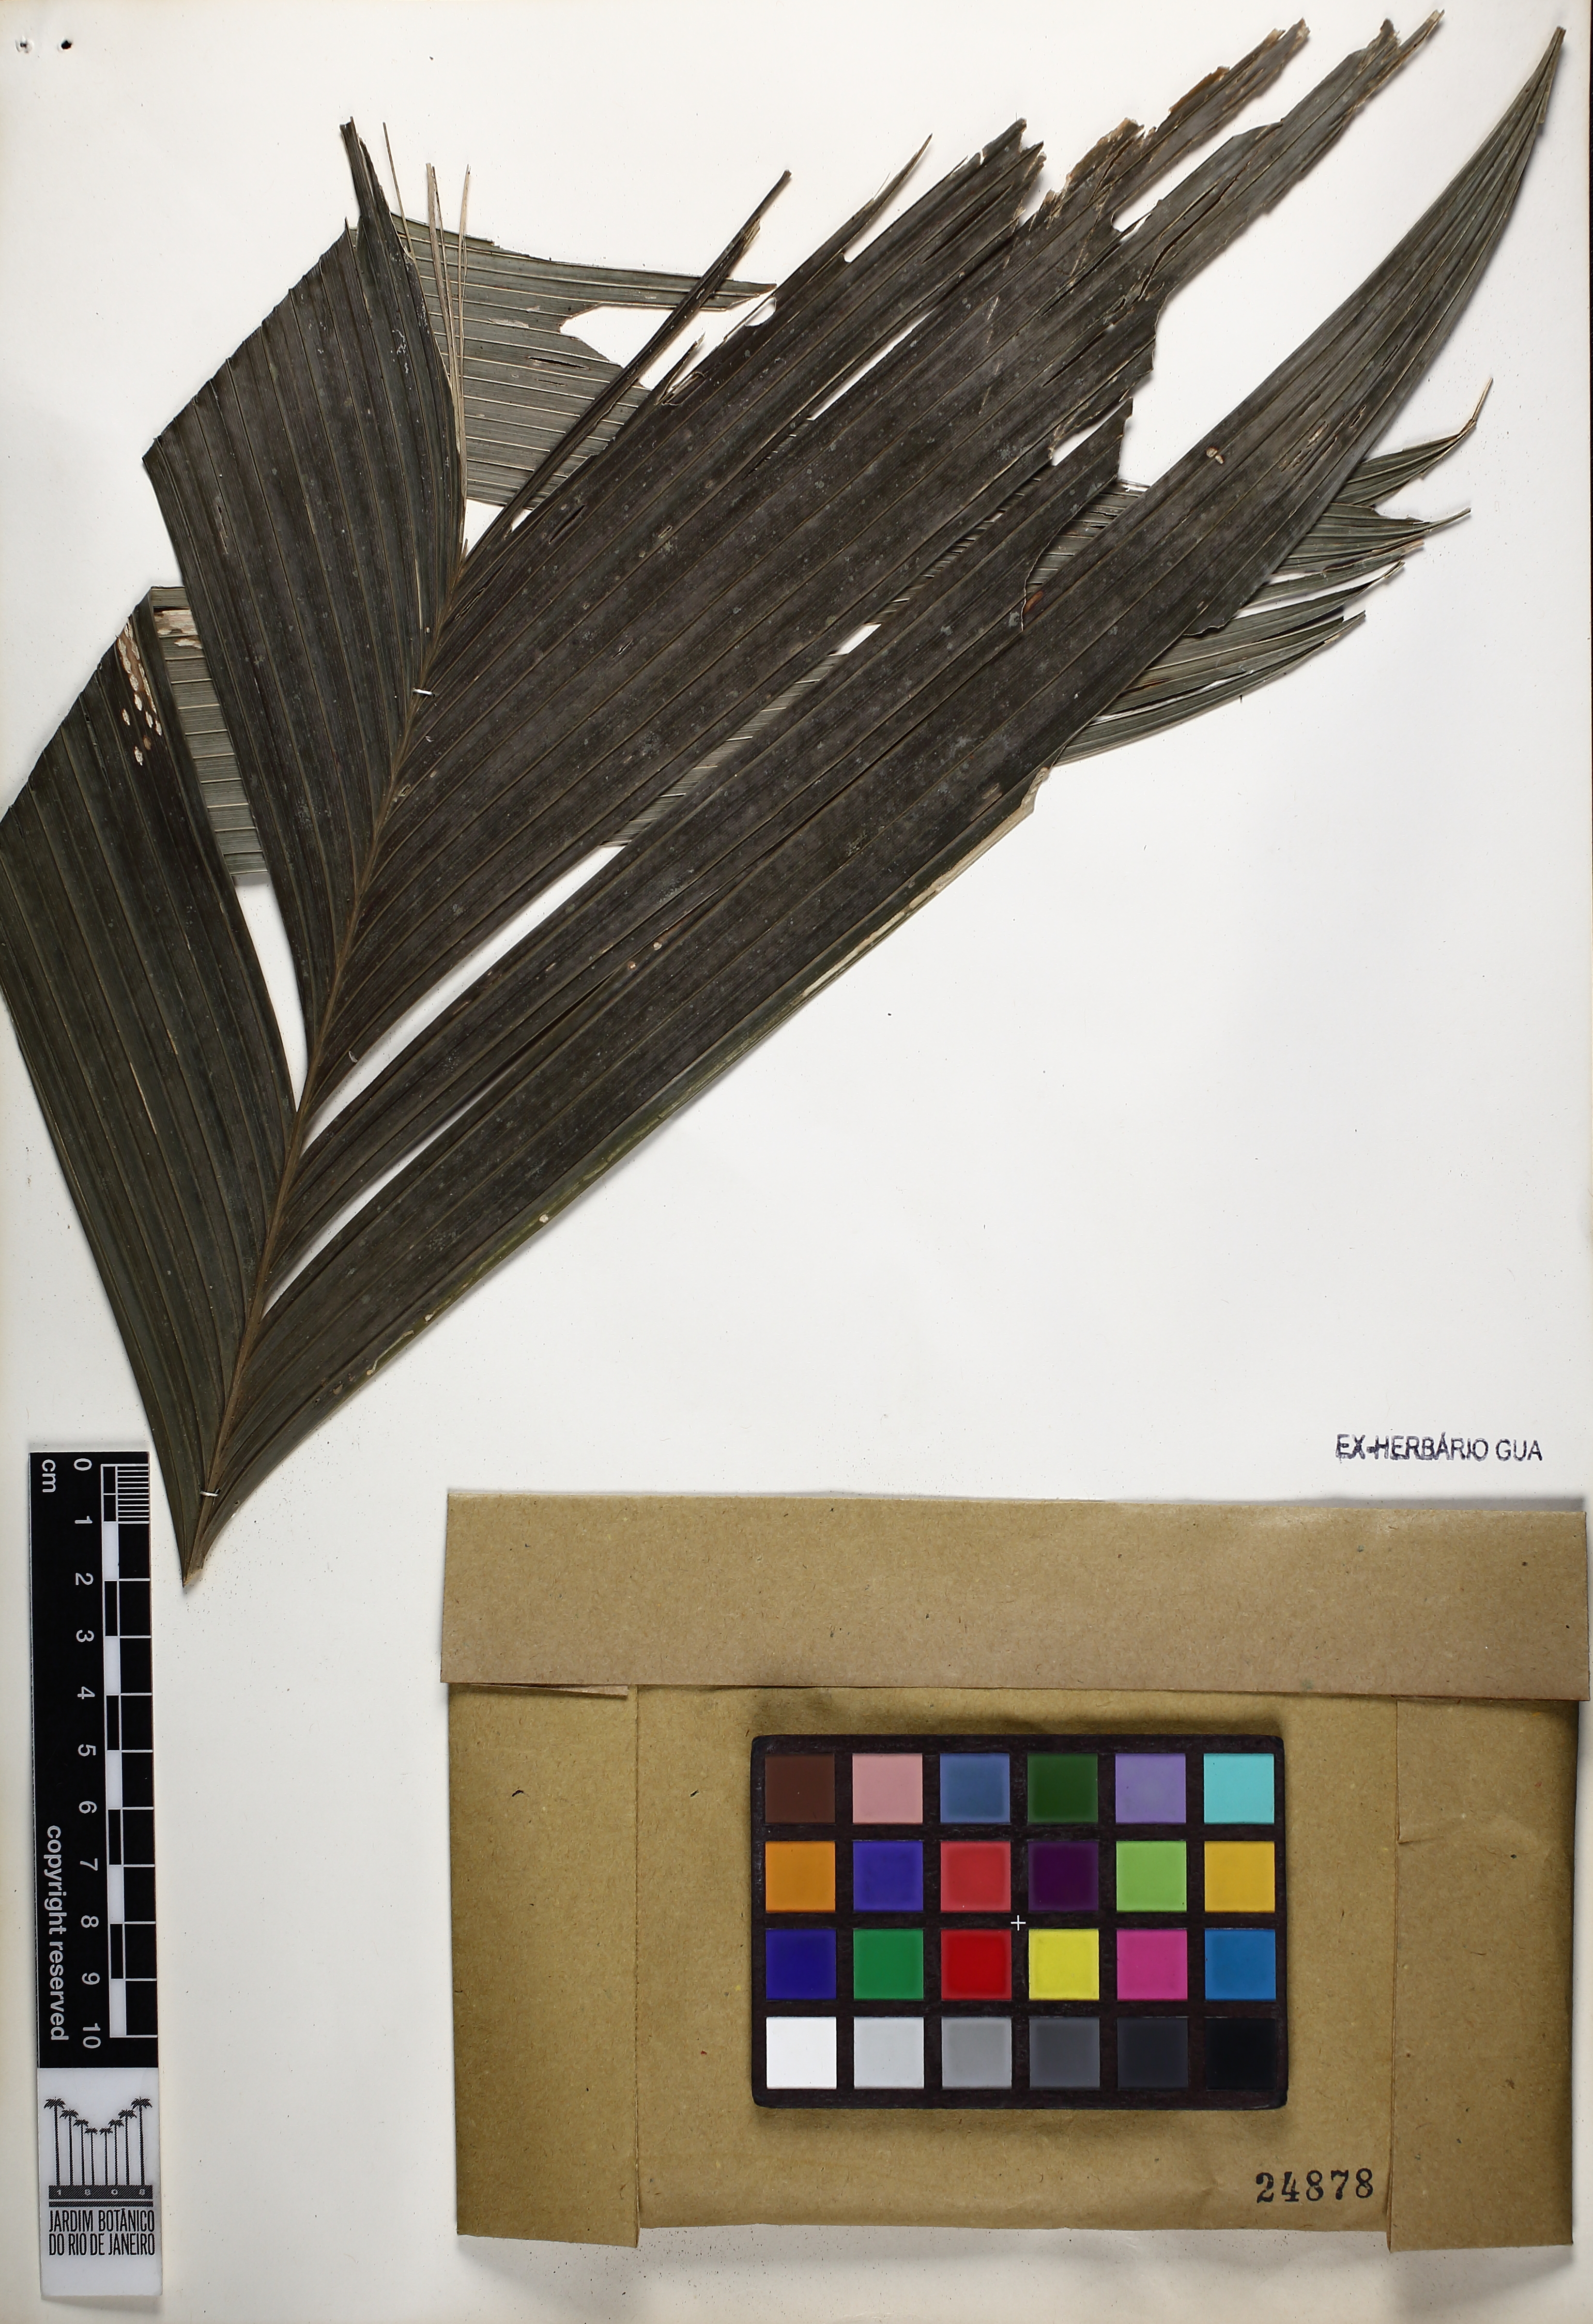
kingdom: Plantae
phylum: Tracheophyta
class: Liliopsida
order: Arecales
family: Arecaceae
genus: Geonoma
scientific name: Geonoma pohliana
